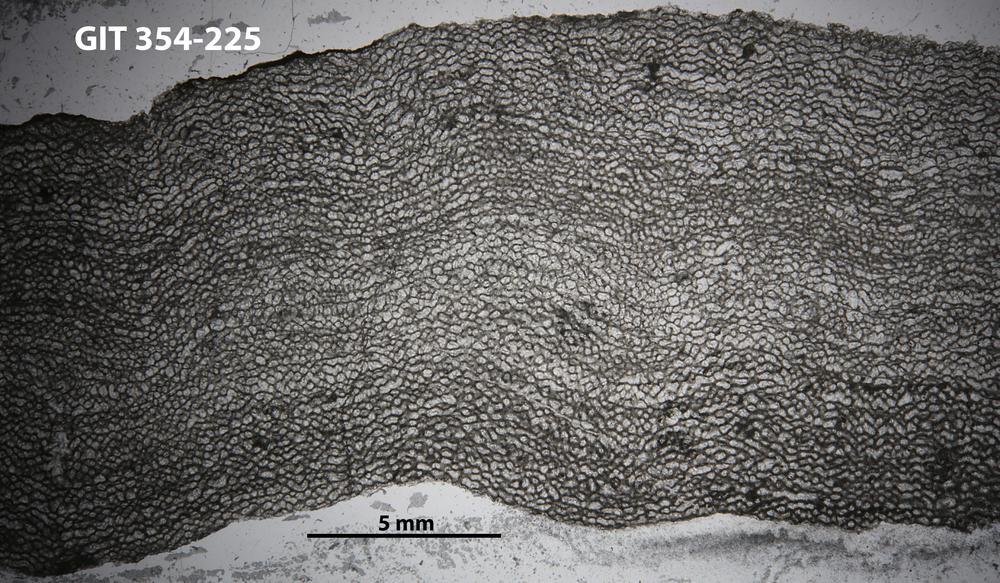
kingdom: Animalia
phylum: Porifera
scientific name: Porifera
